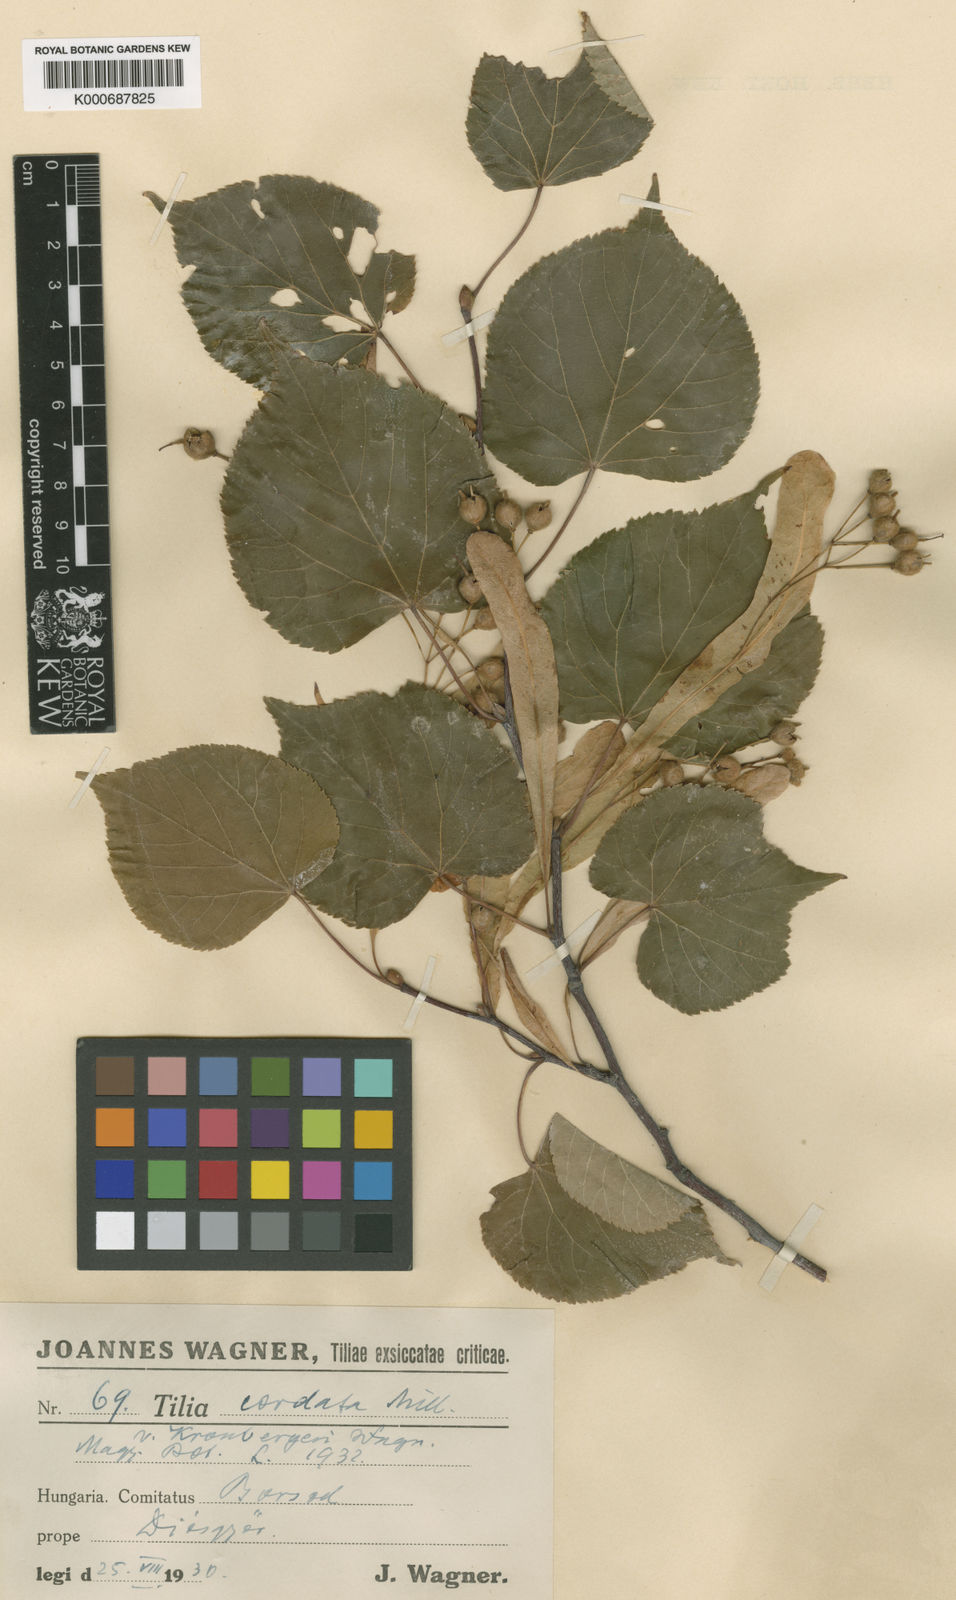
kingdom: Plantae
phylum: Tracheophyta
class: Magnoliopsida
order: Malvales
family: Malvaceae
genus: Tilia
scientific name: Tilia cordata
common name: Small-leaved lime
